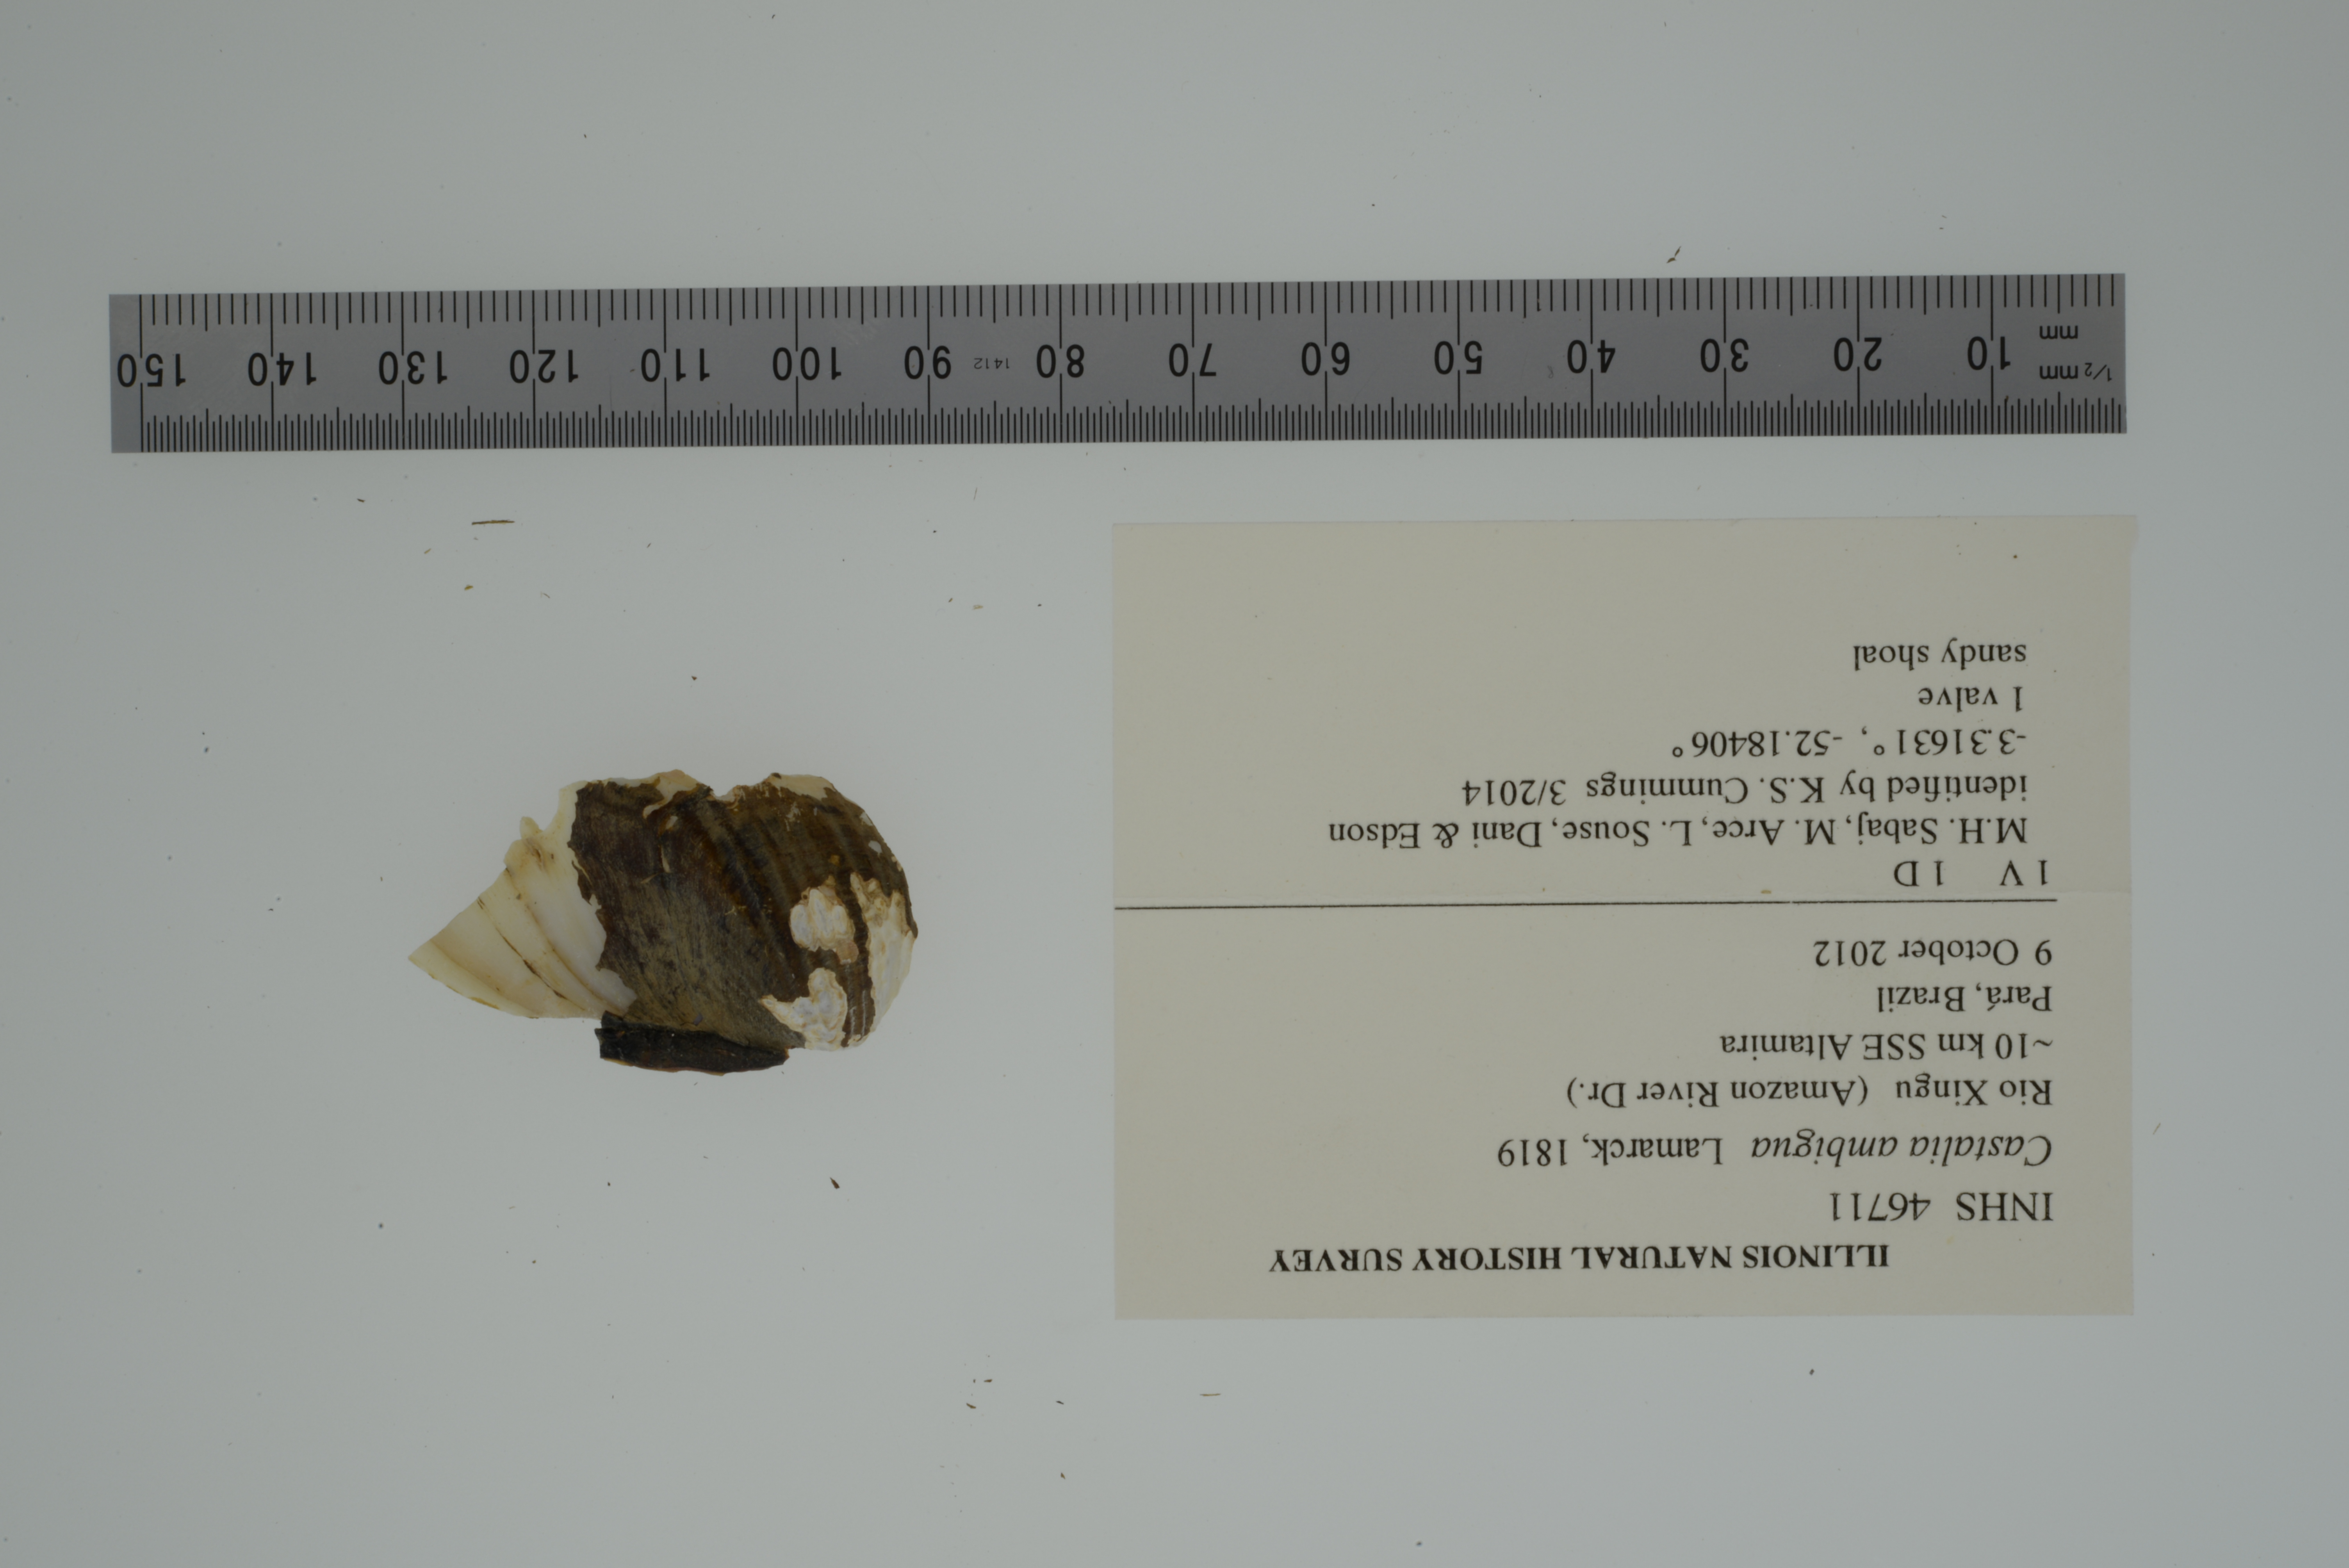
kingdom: Animalia
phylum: Mollusca
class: Bivalvia
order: Unionida
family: Hyriidae
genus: Castalia
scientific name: Castalia ambigua
